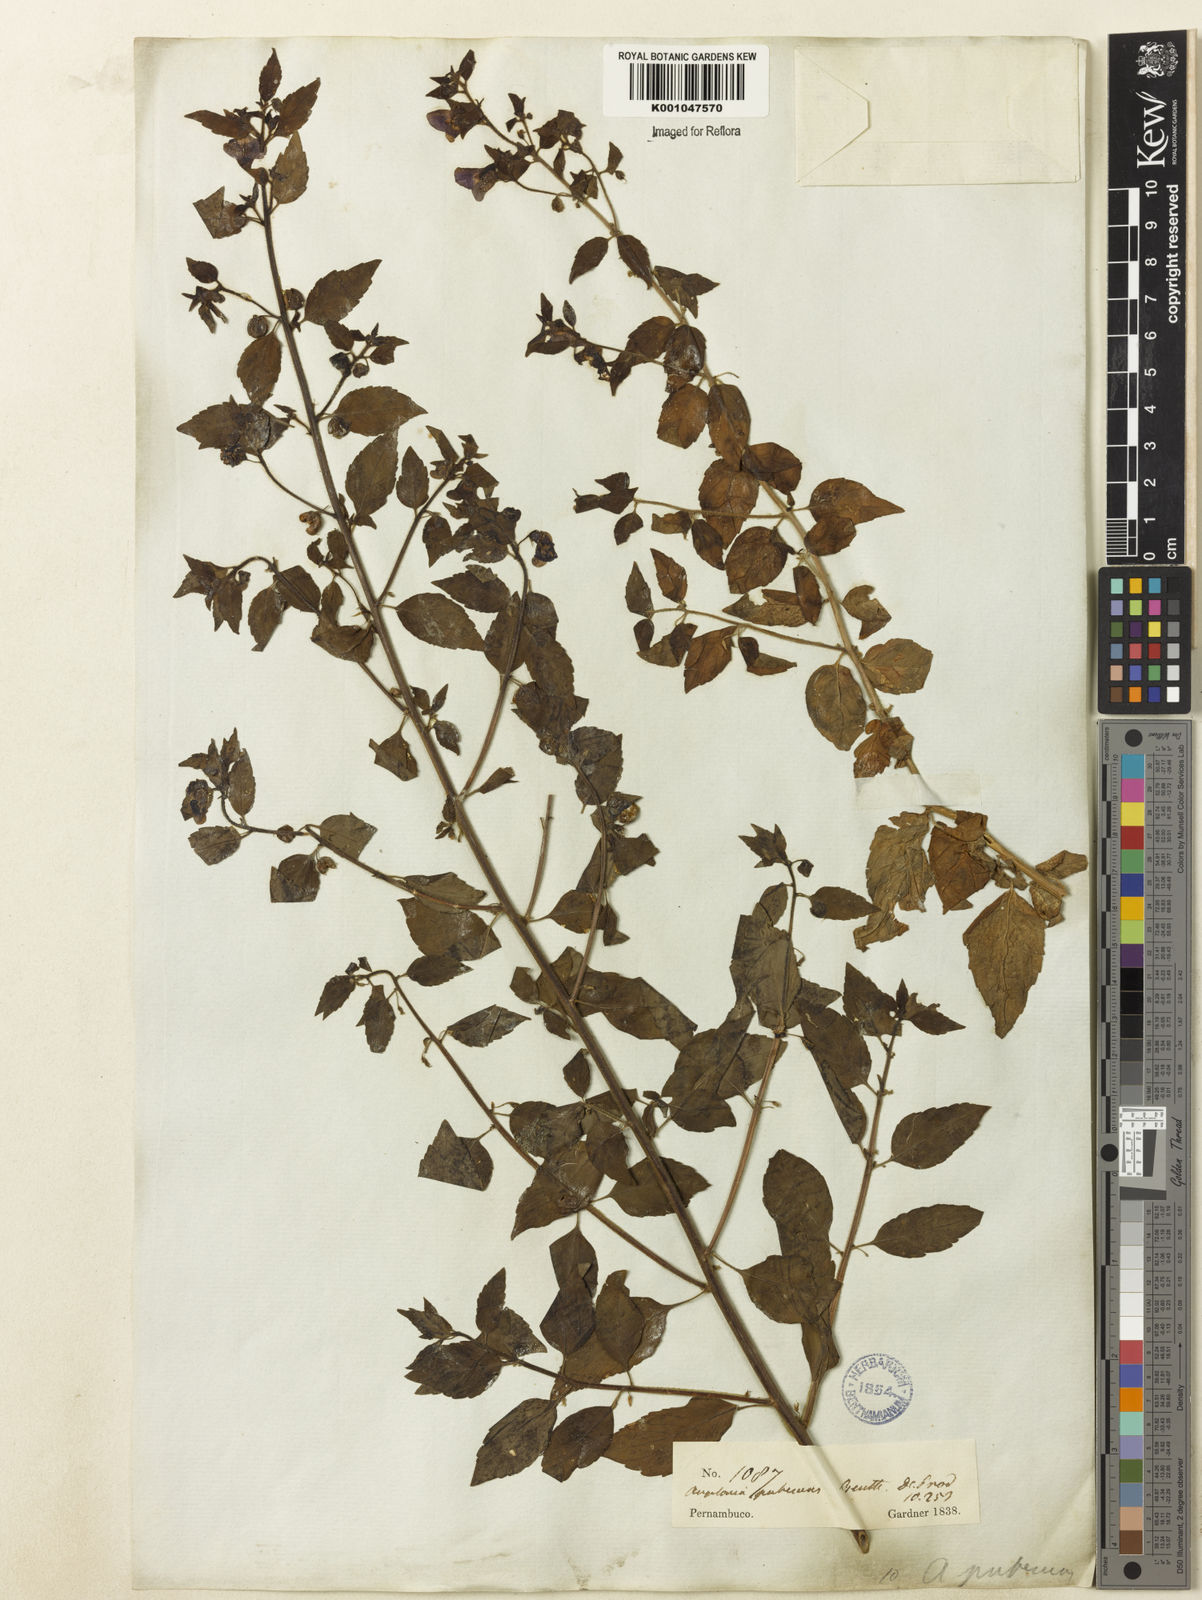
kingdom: Plantae
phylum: Tracheophyta
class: Magnoliopsida
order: Lamiales
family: Plantaginaceae
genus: Angelonia
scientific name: Angelonia pubescens
